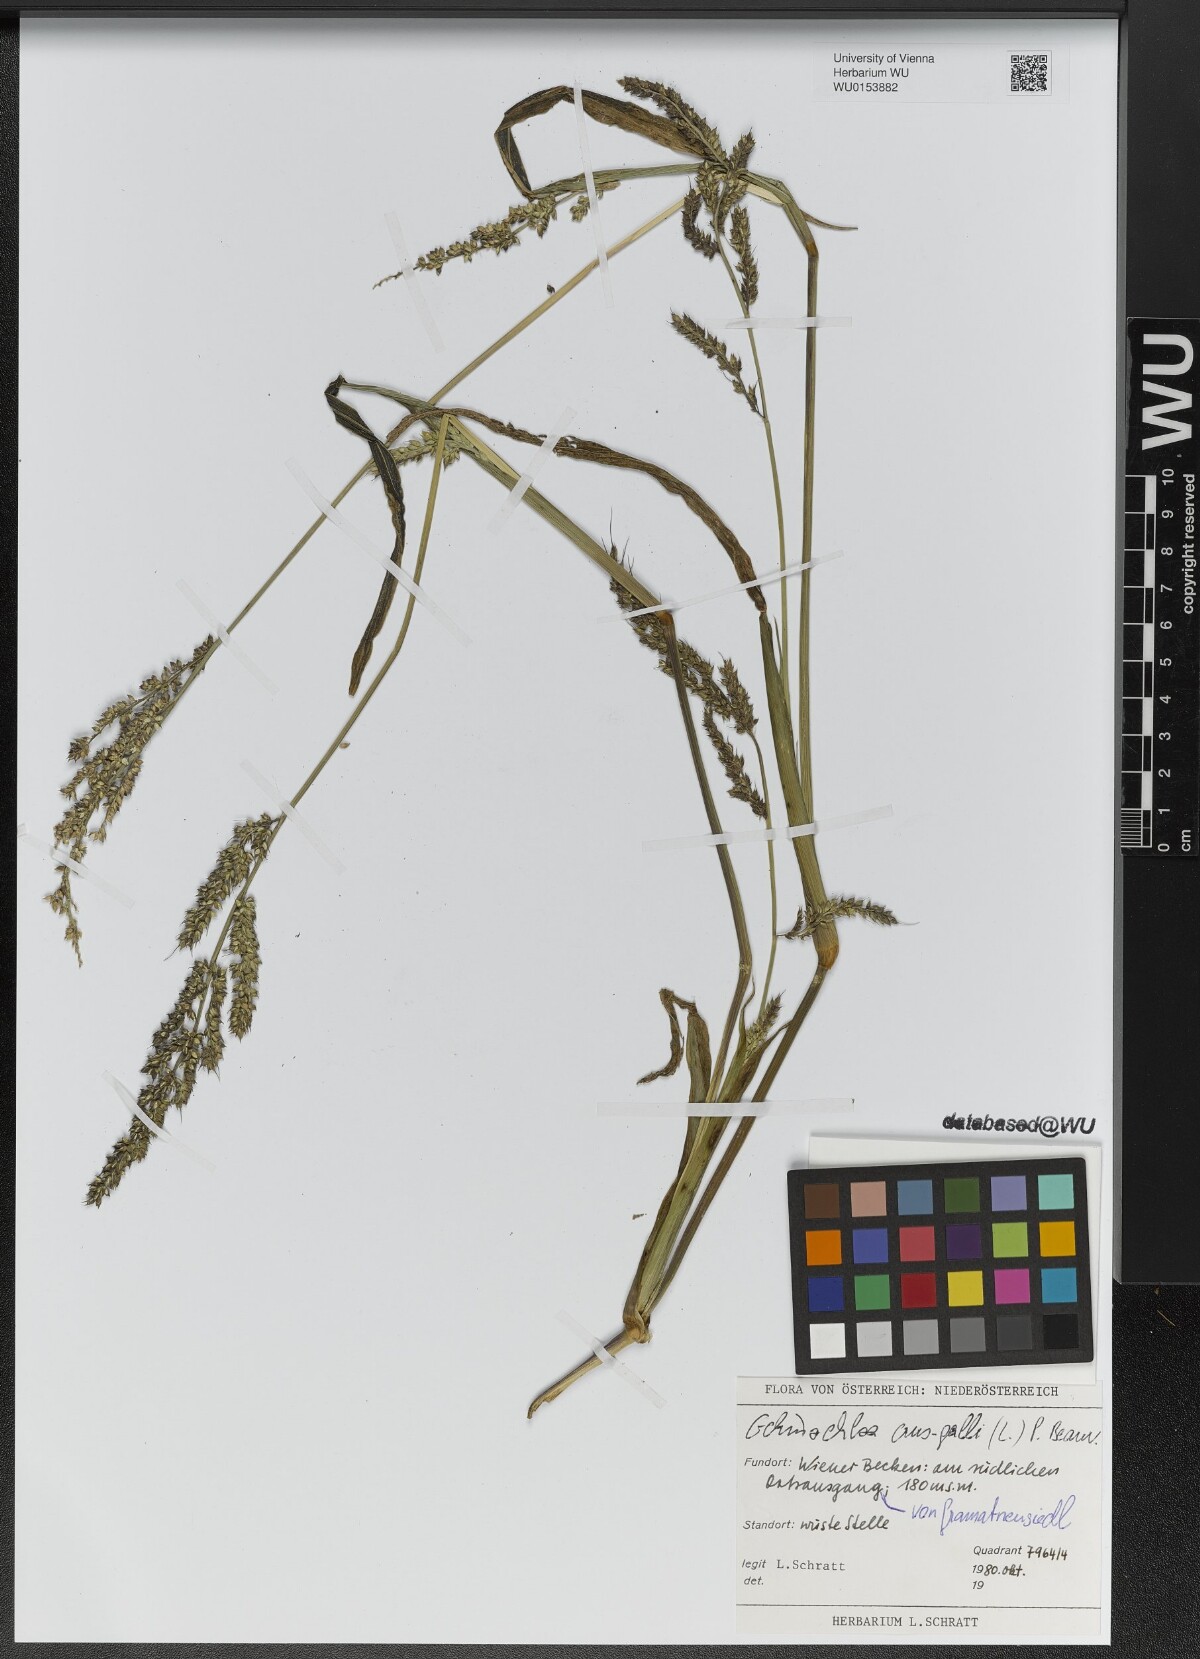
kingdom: Plantae
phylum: Tracheophyta
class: Liliopsida
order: Poales
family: Poaceae
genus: Echinochloa
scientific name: Echinochloa crus-galli
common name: Cockspur
